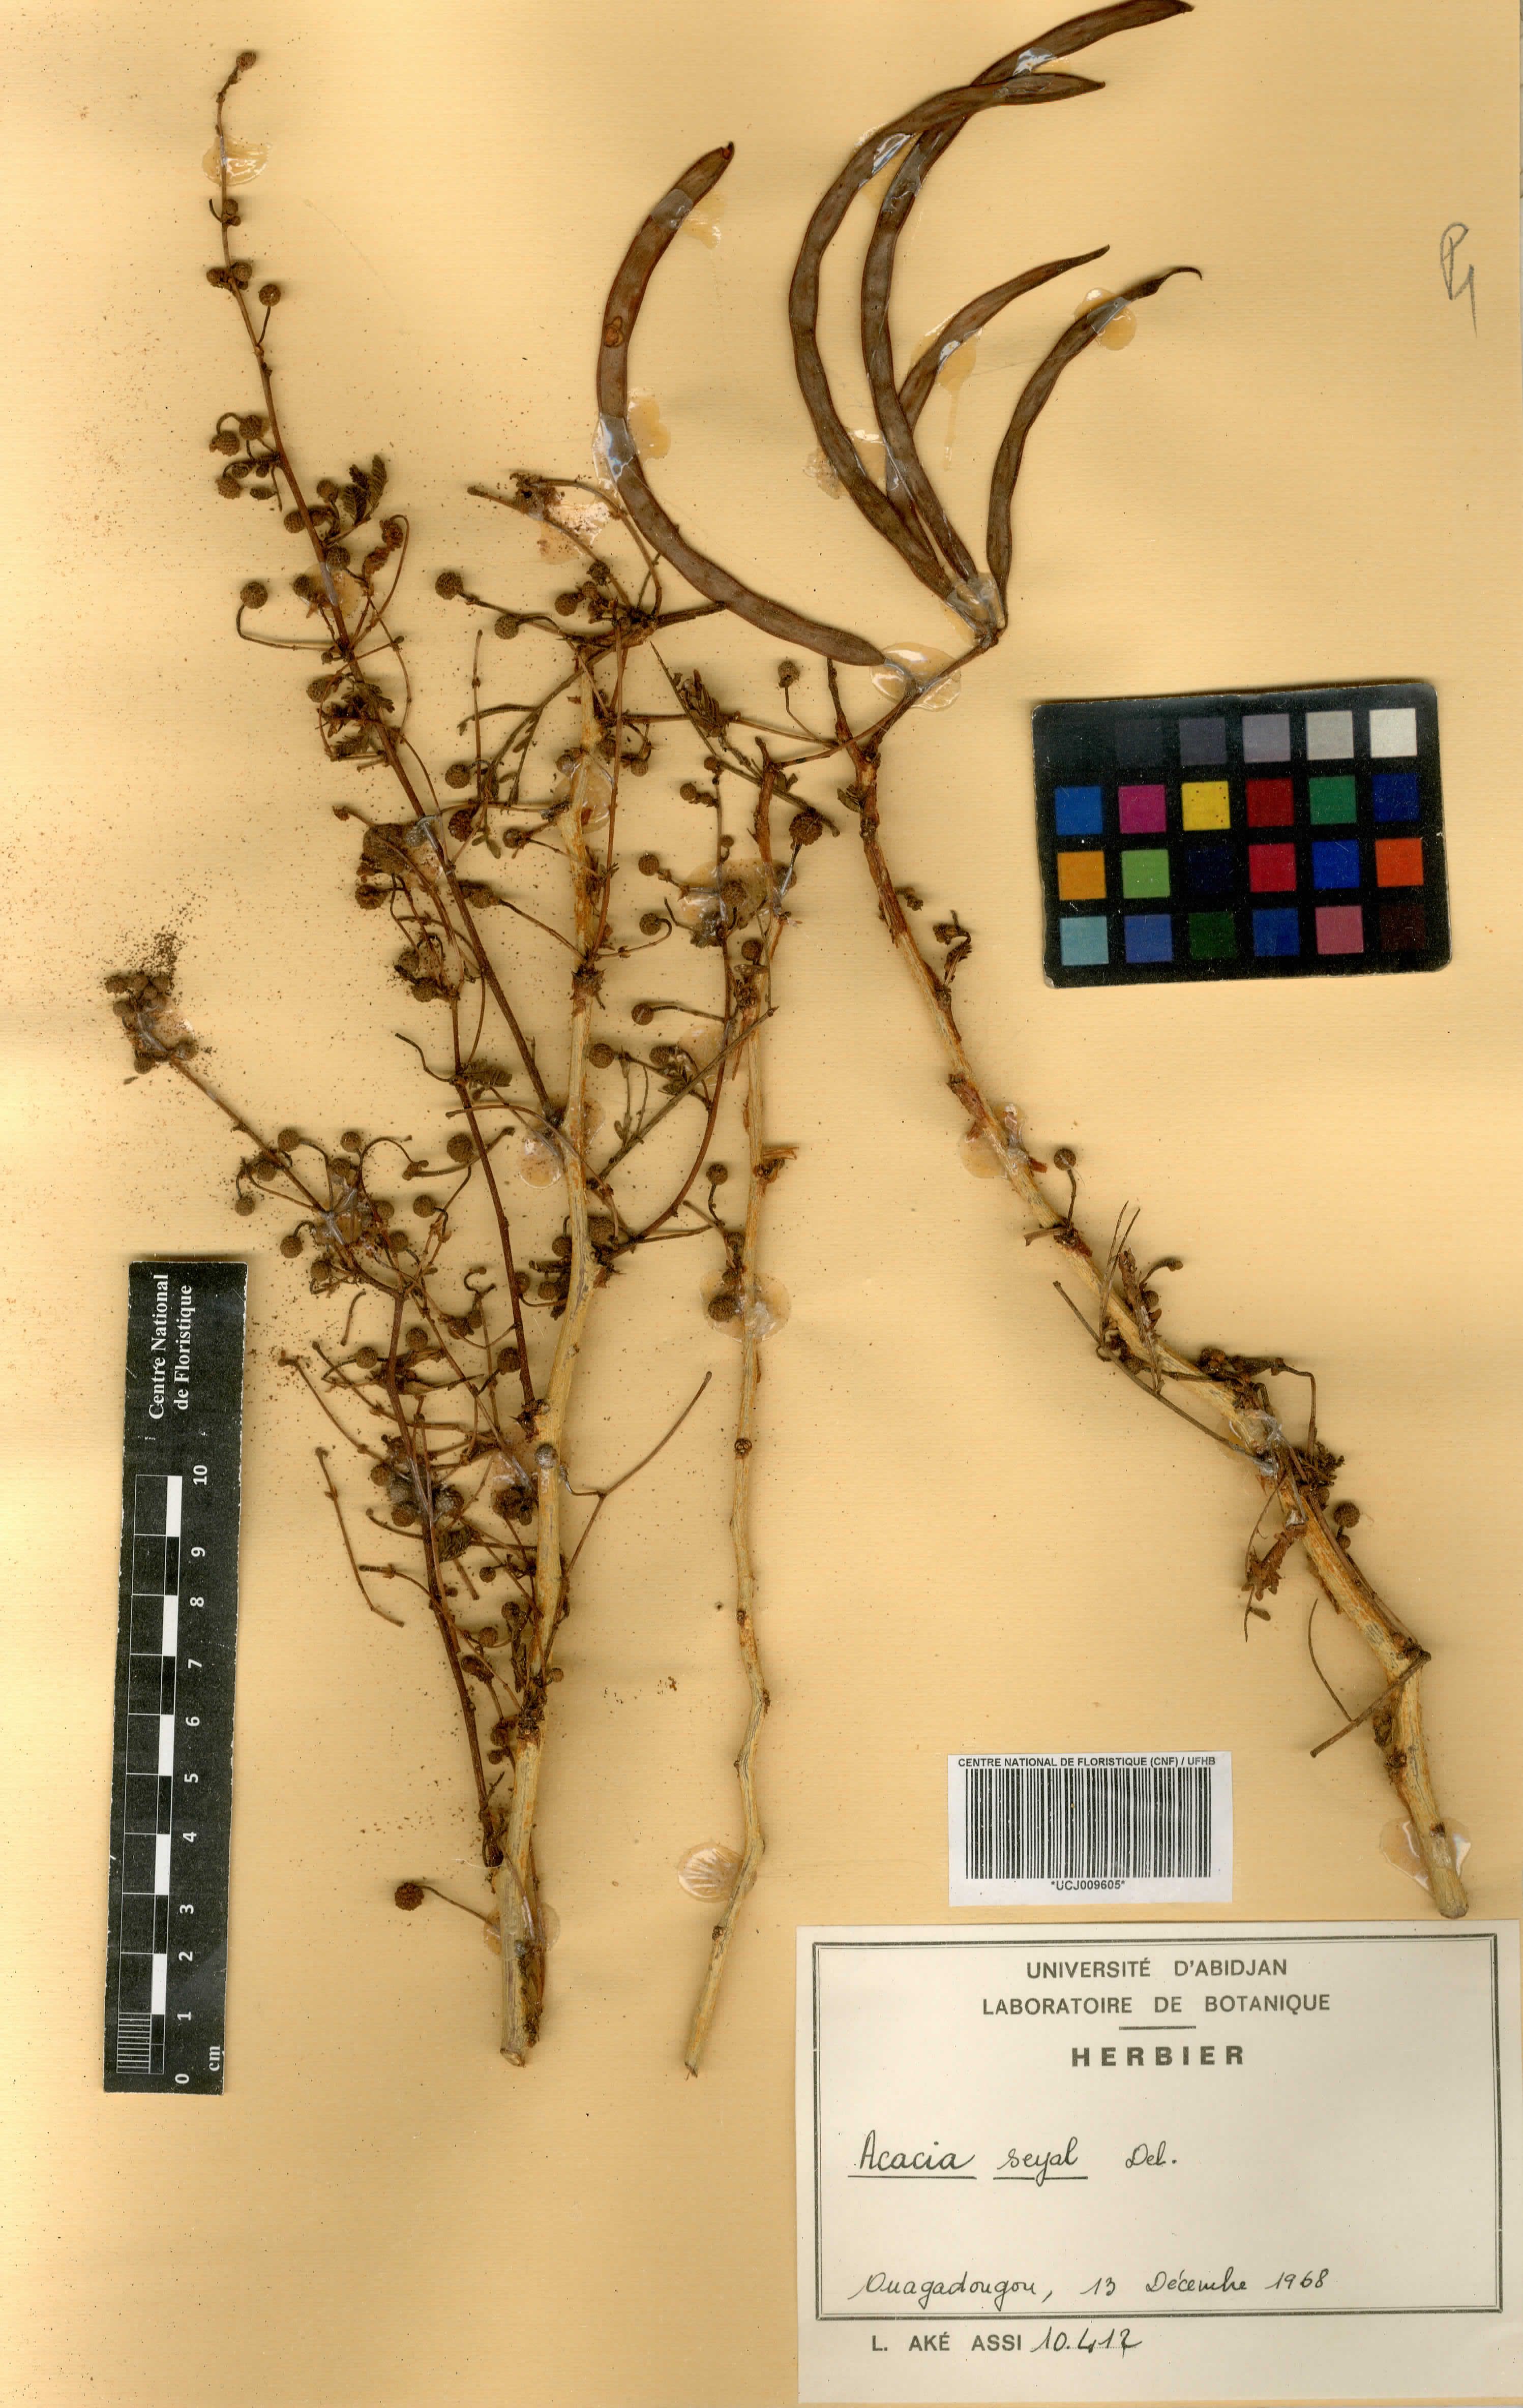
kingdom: Plantae
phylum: Tracheophyta
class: Magnoliopsida
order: Fabales
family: Fabaceae
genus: Acacia
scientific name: Acacia
